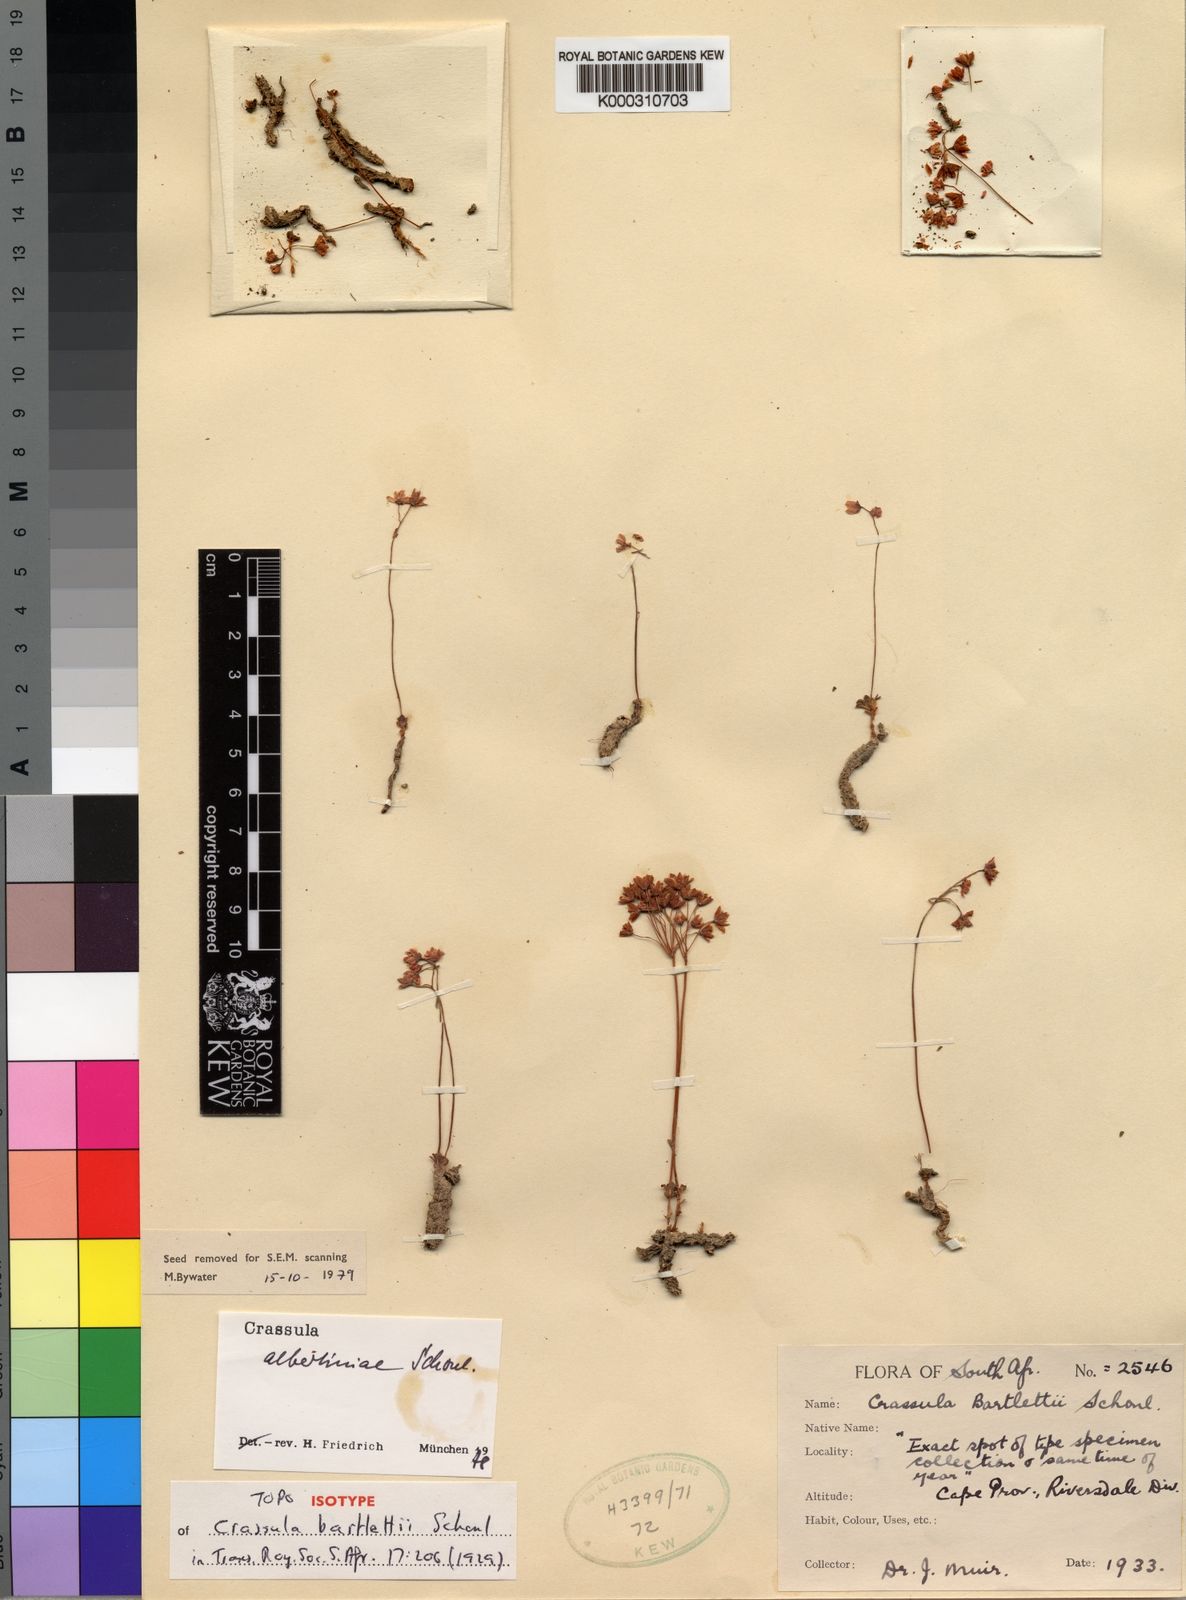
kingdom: Plantae
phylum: Tracheophyta
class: Magnoliopsida
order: Saxifragales
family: Crassulaceae
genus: Crassula
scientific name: Crassula capensis
